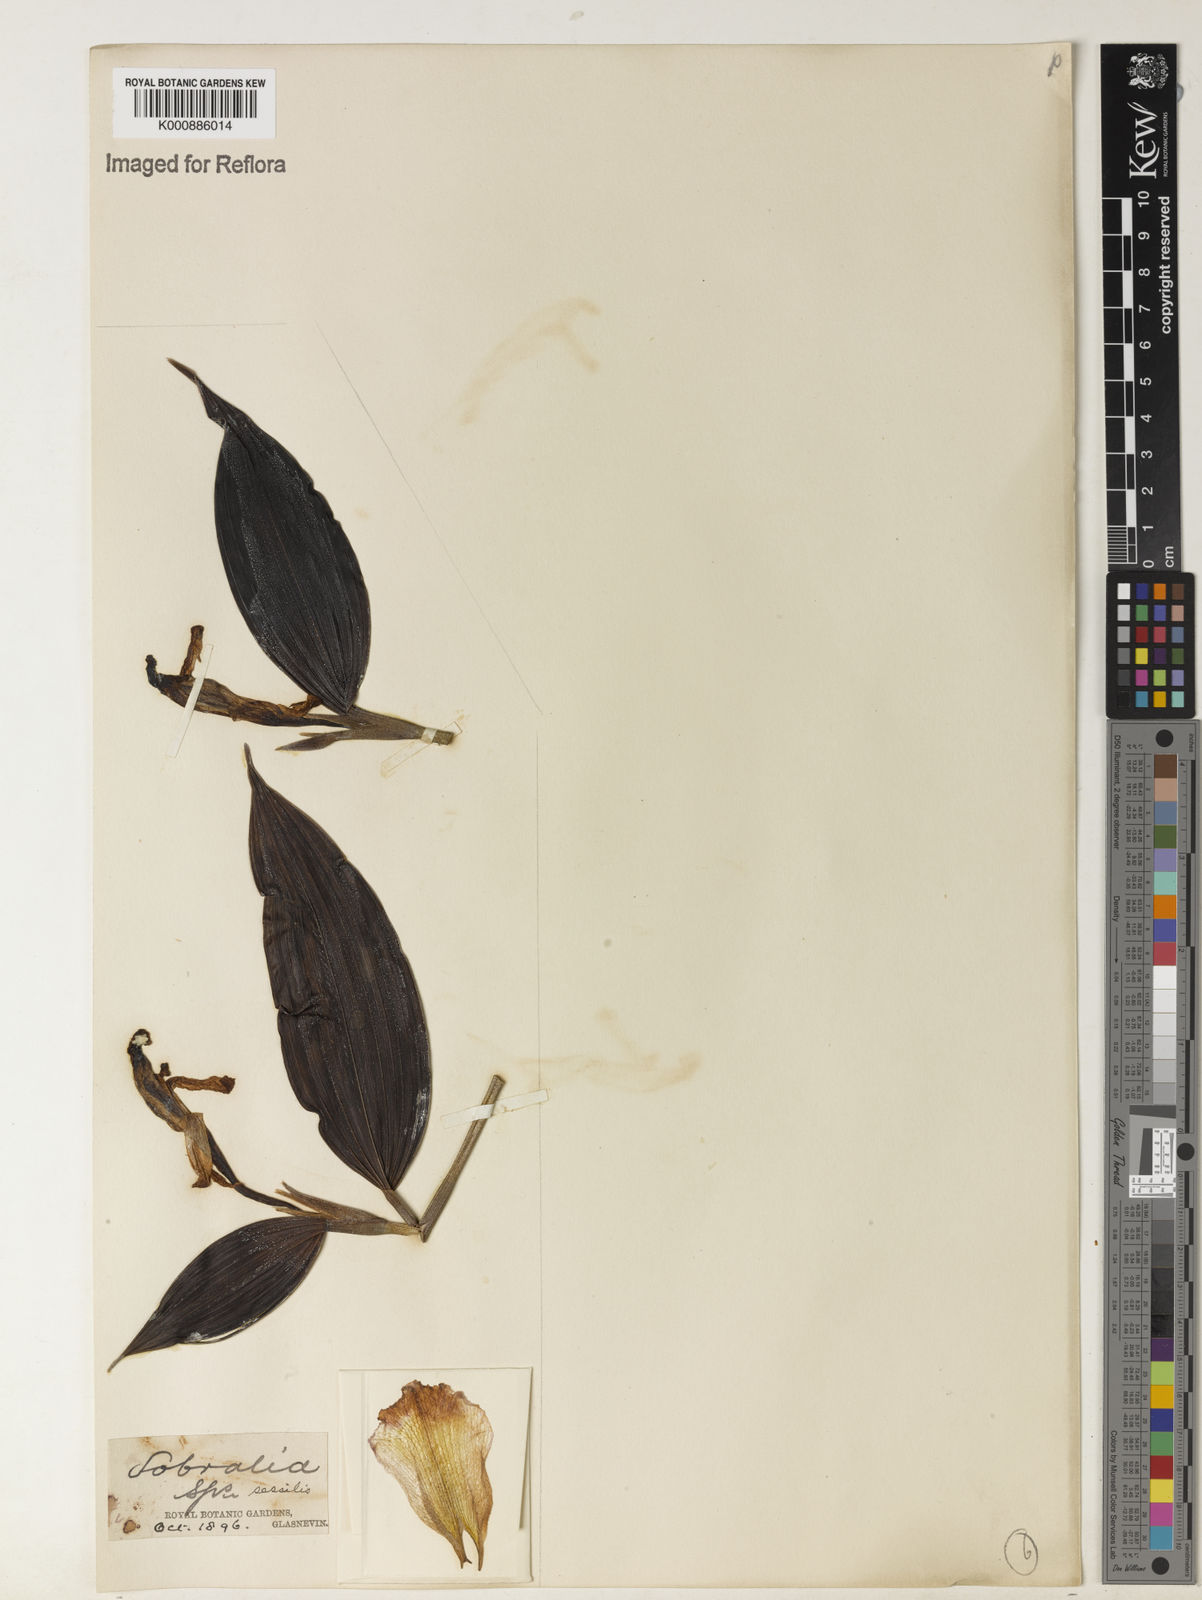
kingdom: Plantae
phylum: Tracheophyta
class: Liliopsida
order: Asparagales
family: Orchidaceae
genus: Sobralia
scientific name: Sobralia sessilis
